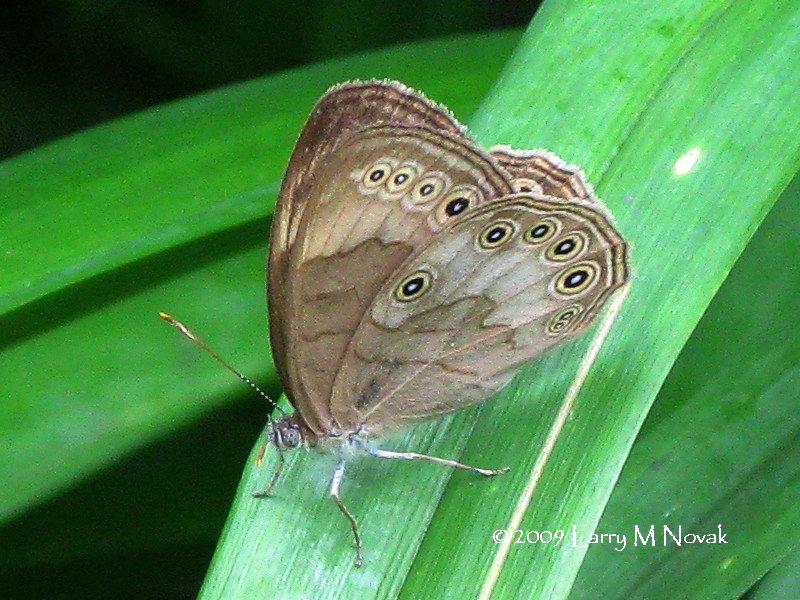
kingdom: Animalia
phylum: Arthropoda
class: Insecta
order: Lepidoptera
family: Nymphalidae
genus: Lethe
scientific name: Lethe eurydice
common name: Eyed Brown
